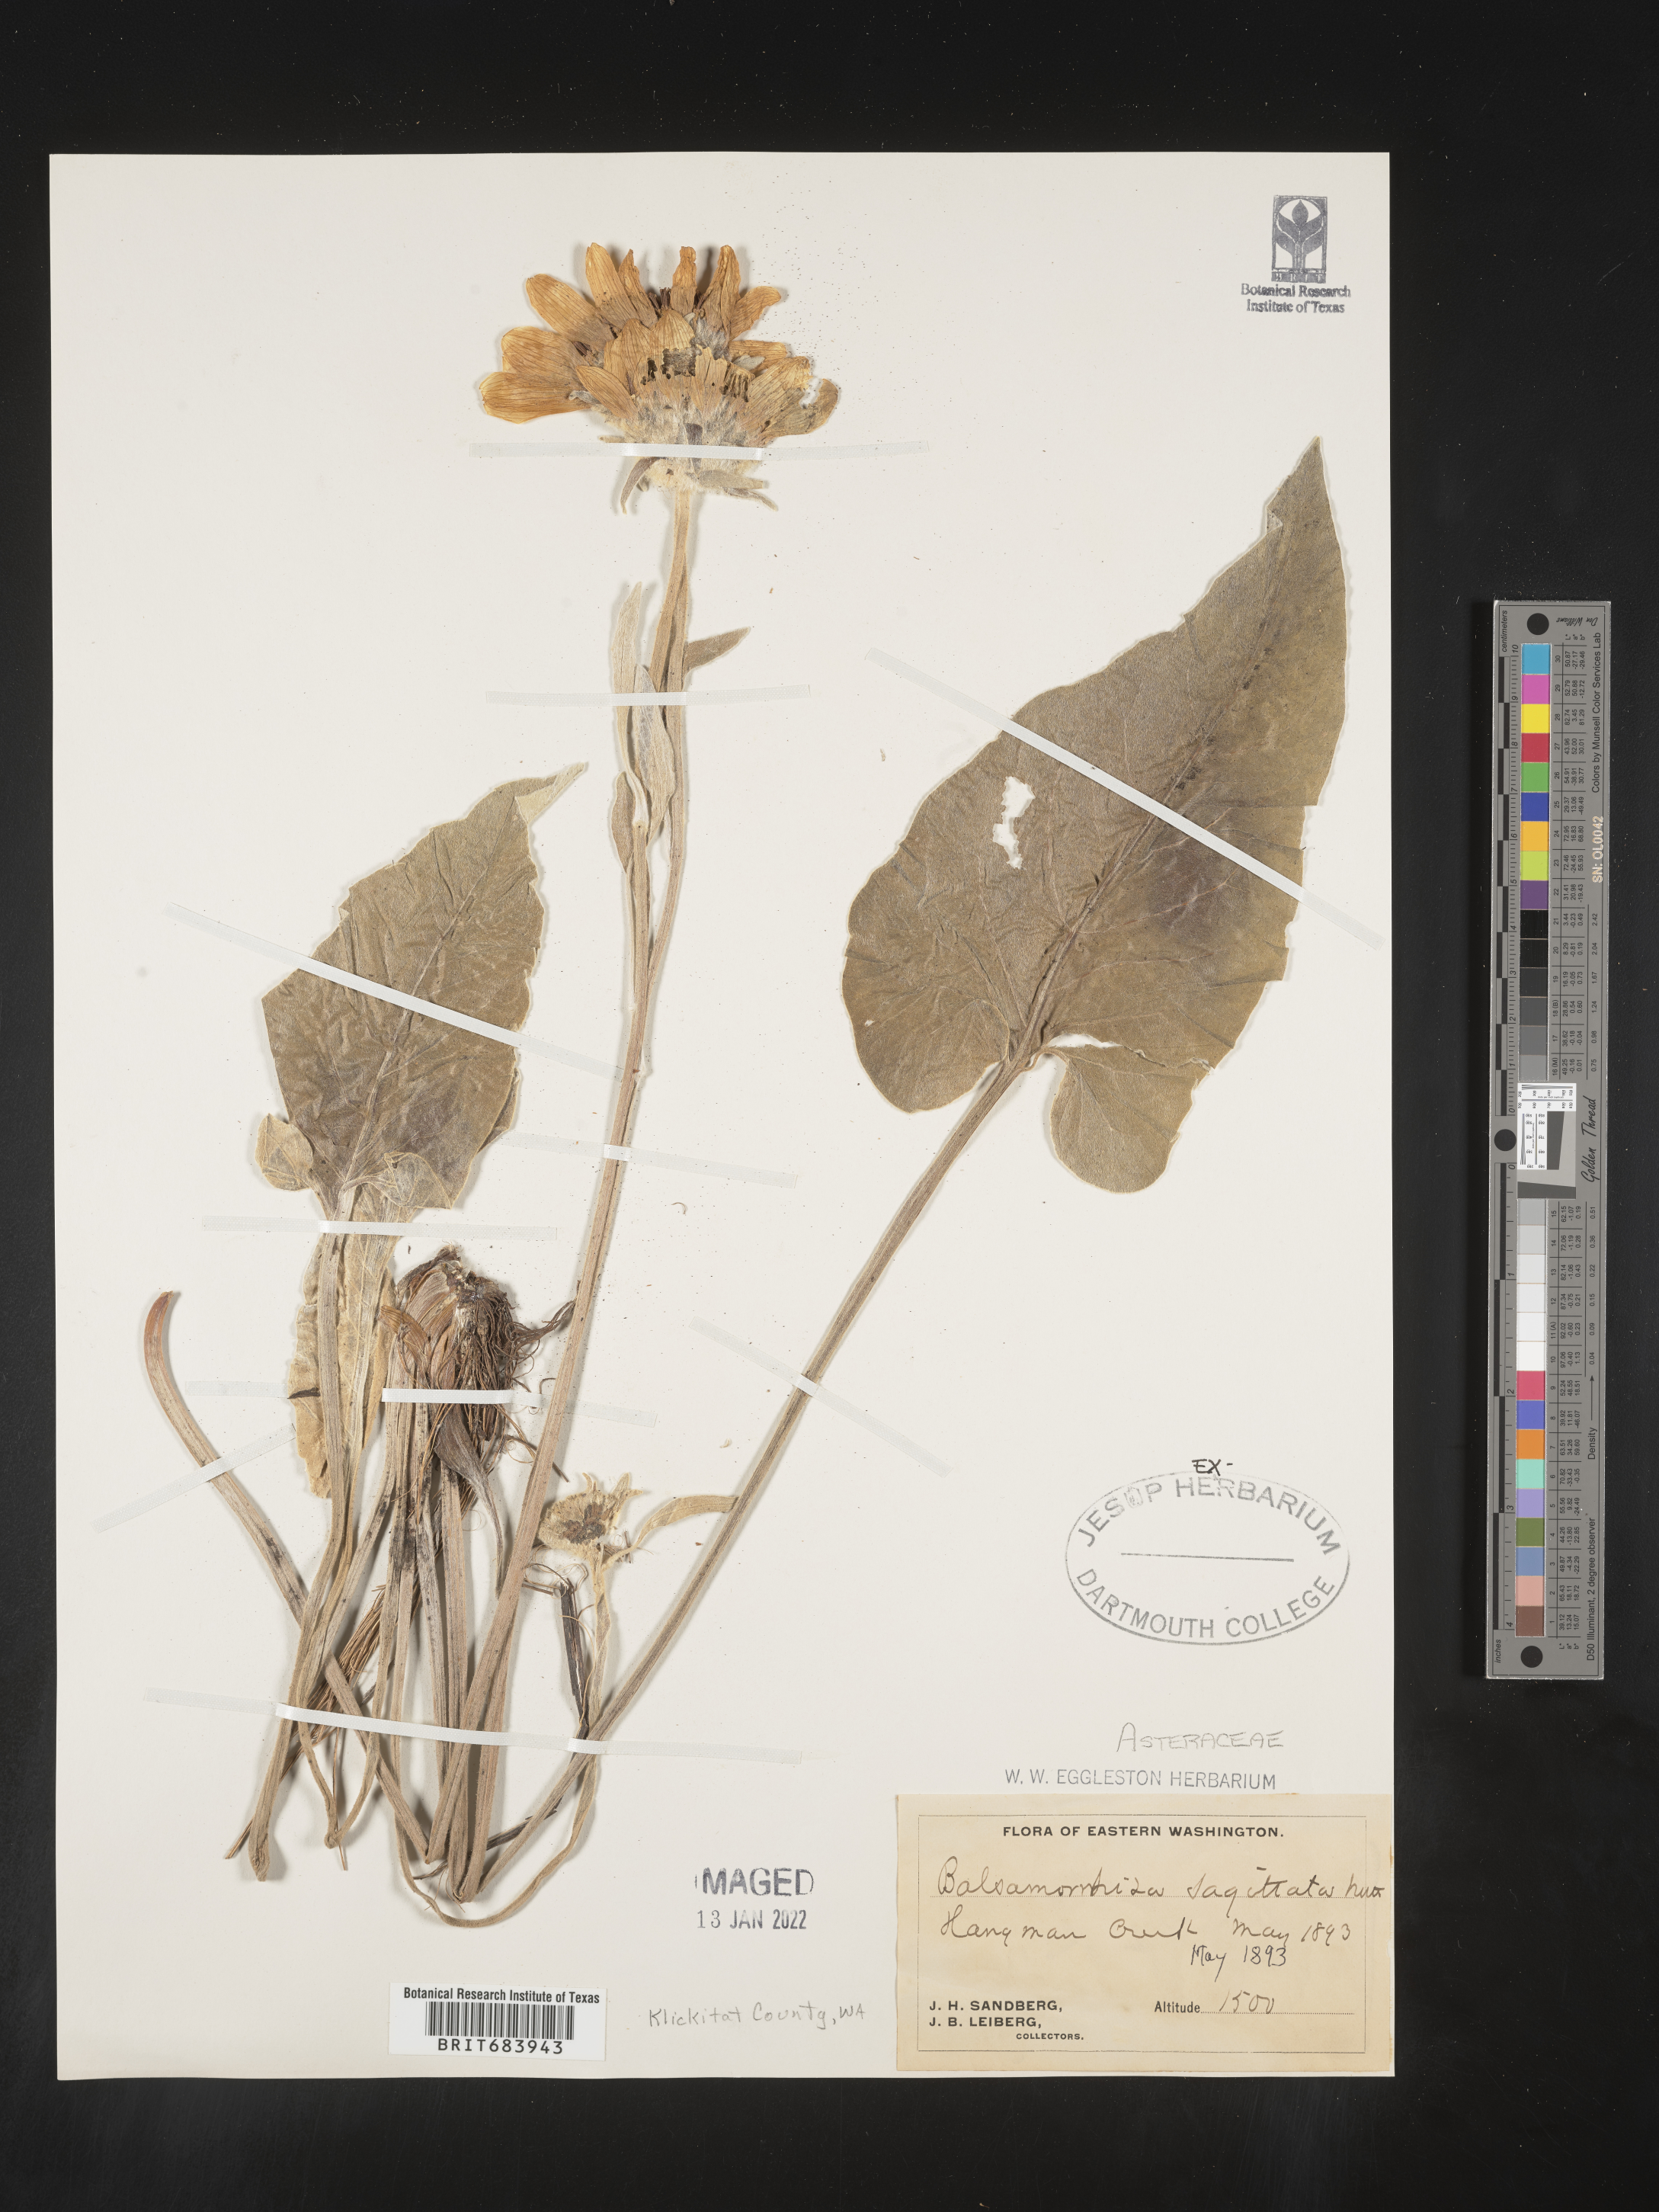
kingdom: Plantae
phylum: Tracheophyta
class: Magnoliopsida
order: Asterales
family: Asteraceae
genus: Wyethia
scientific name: Wyethia sagittata
